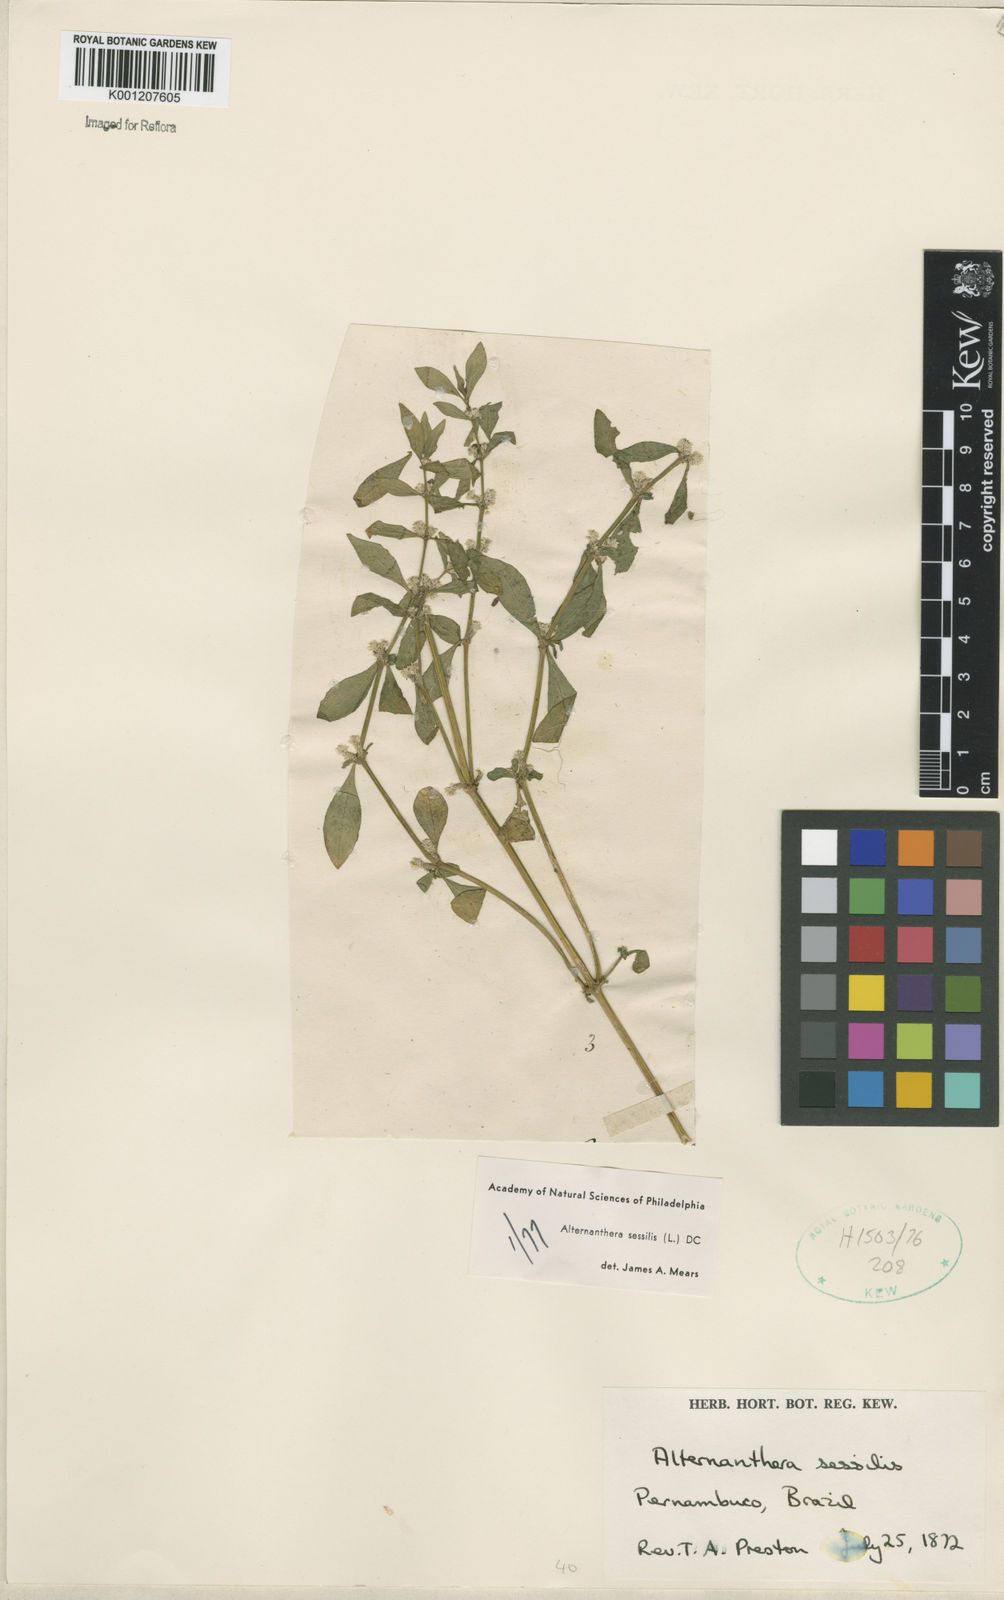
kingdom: Plantae
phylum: Tracheophyta
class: Magnoliopsida
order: Caryophyllales
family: Amaranthaceae
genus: Alternanthera
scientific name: Alternanthera
